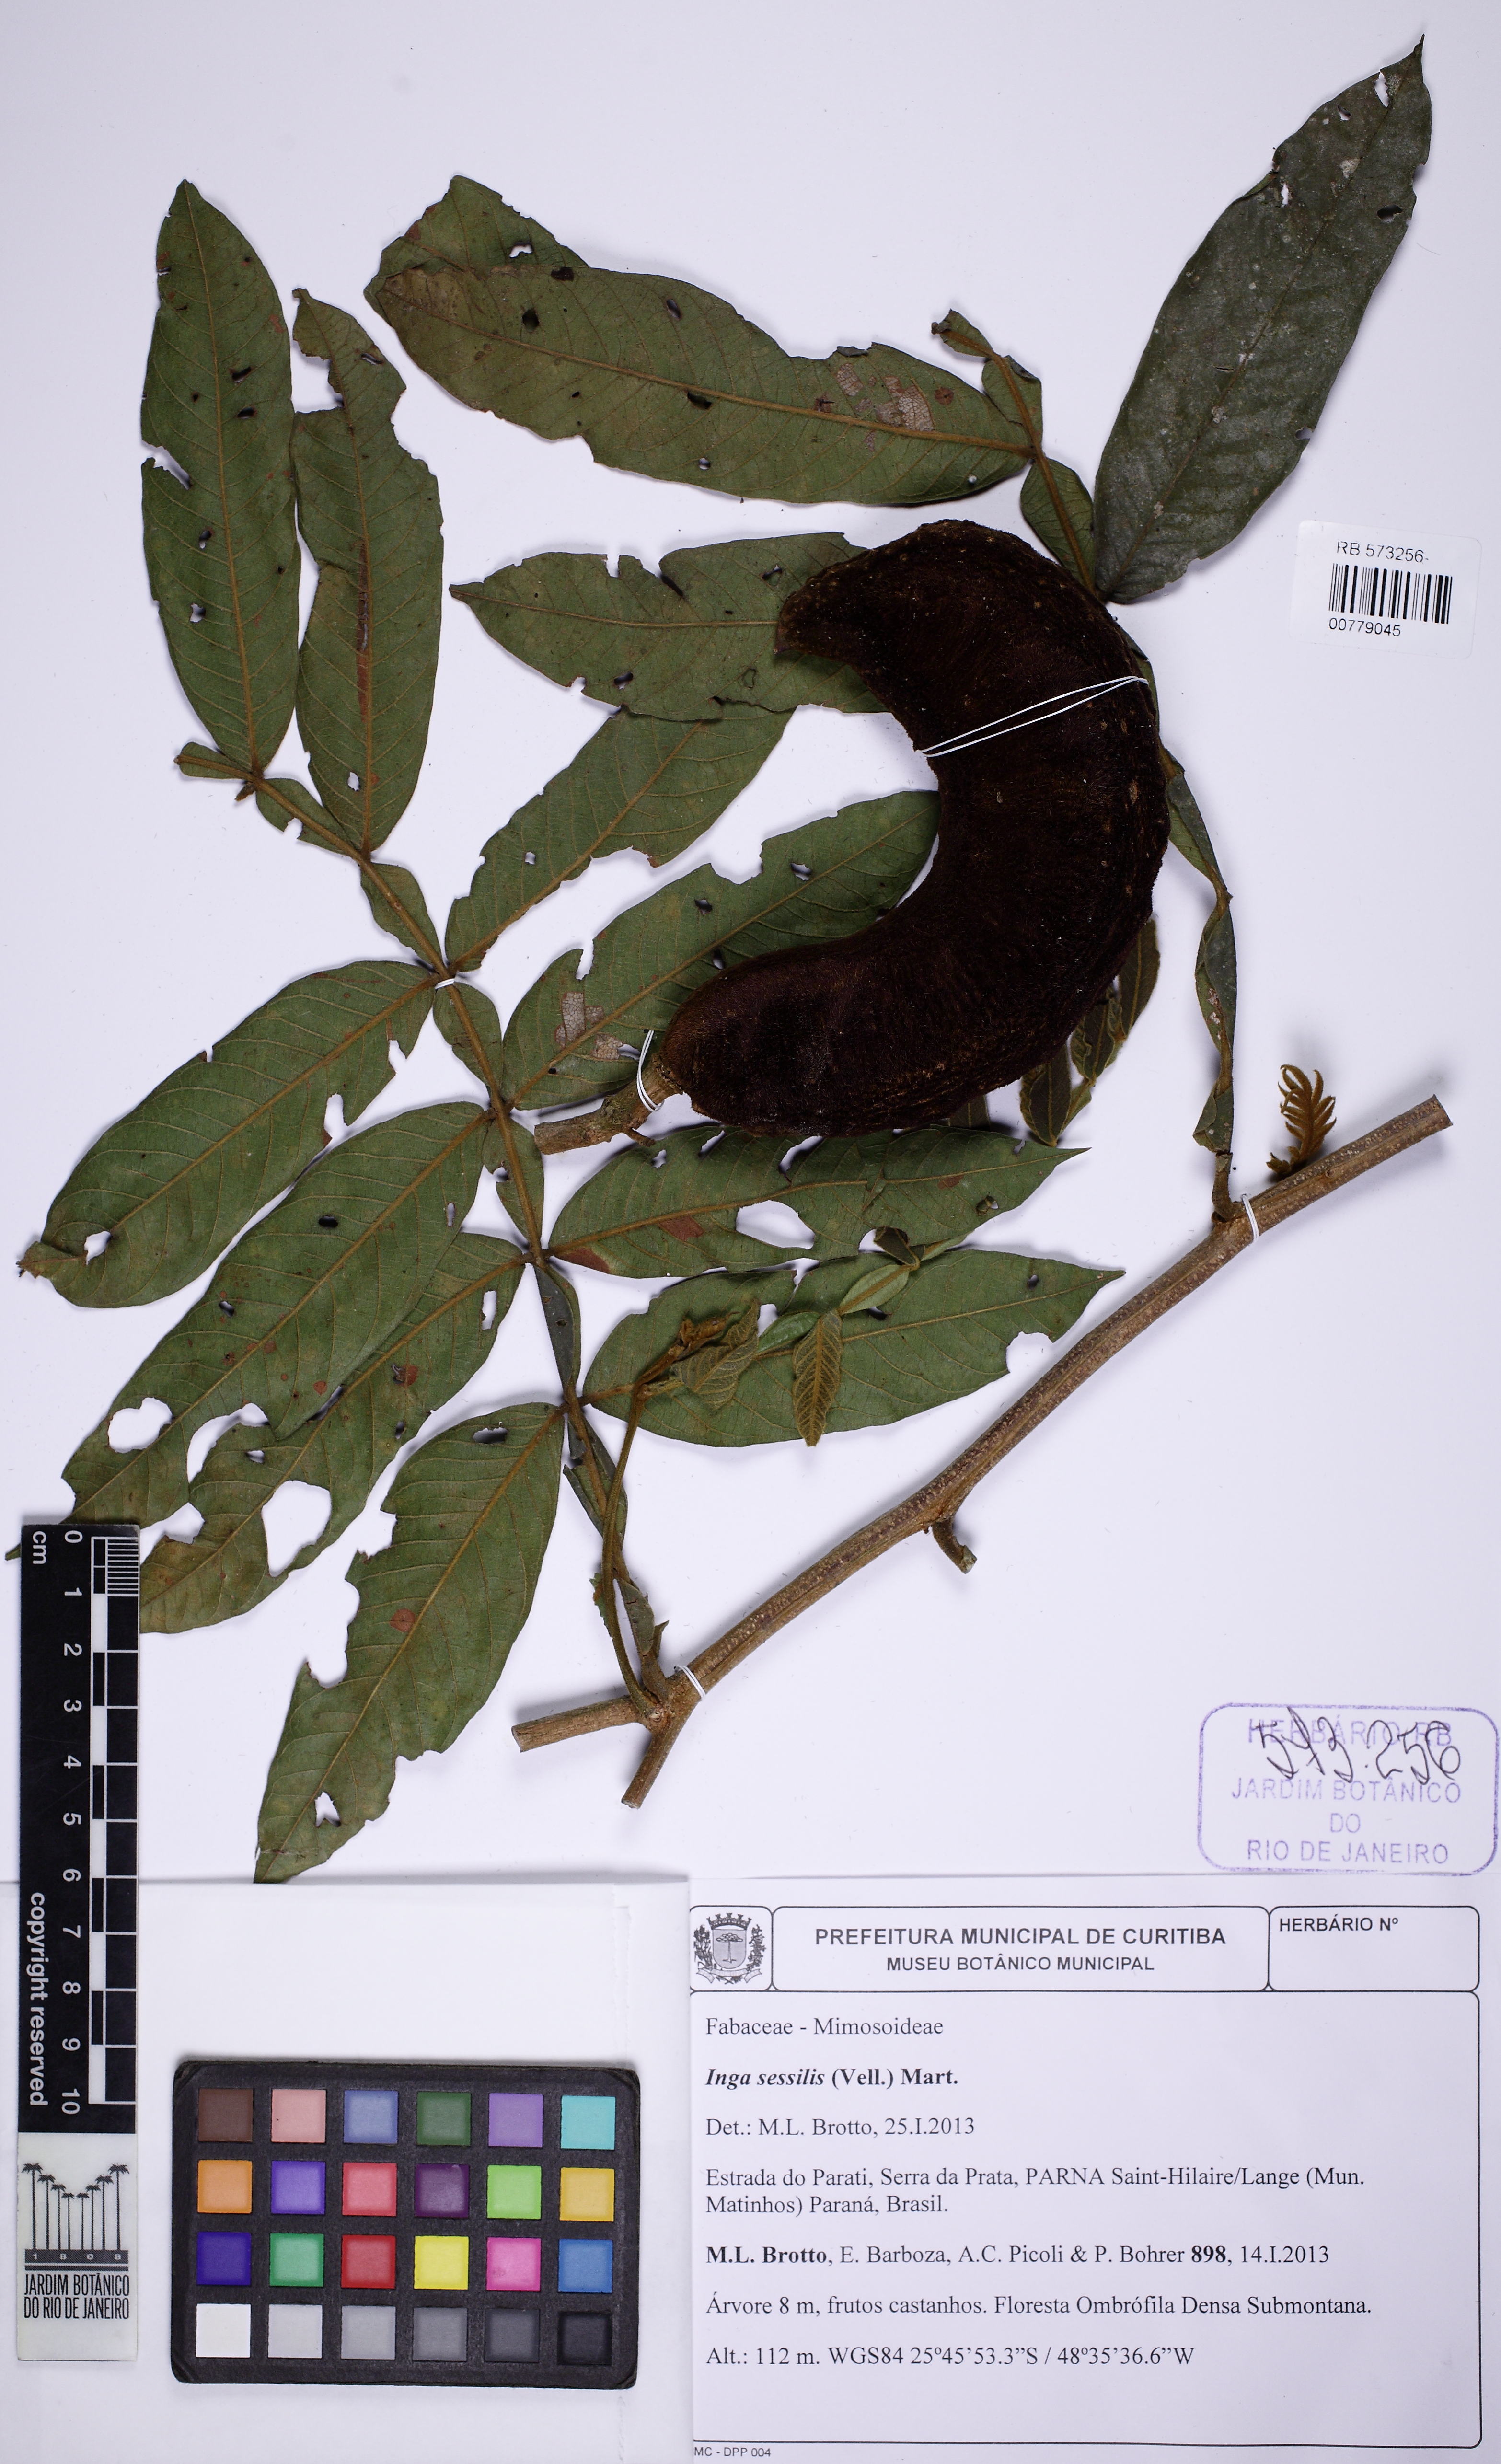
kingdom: Plantae
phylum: Tracheophyta
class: Magnoliopsida
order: Fabales
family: Fabaceae
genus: Inga
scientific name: Inga sessilis
